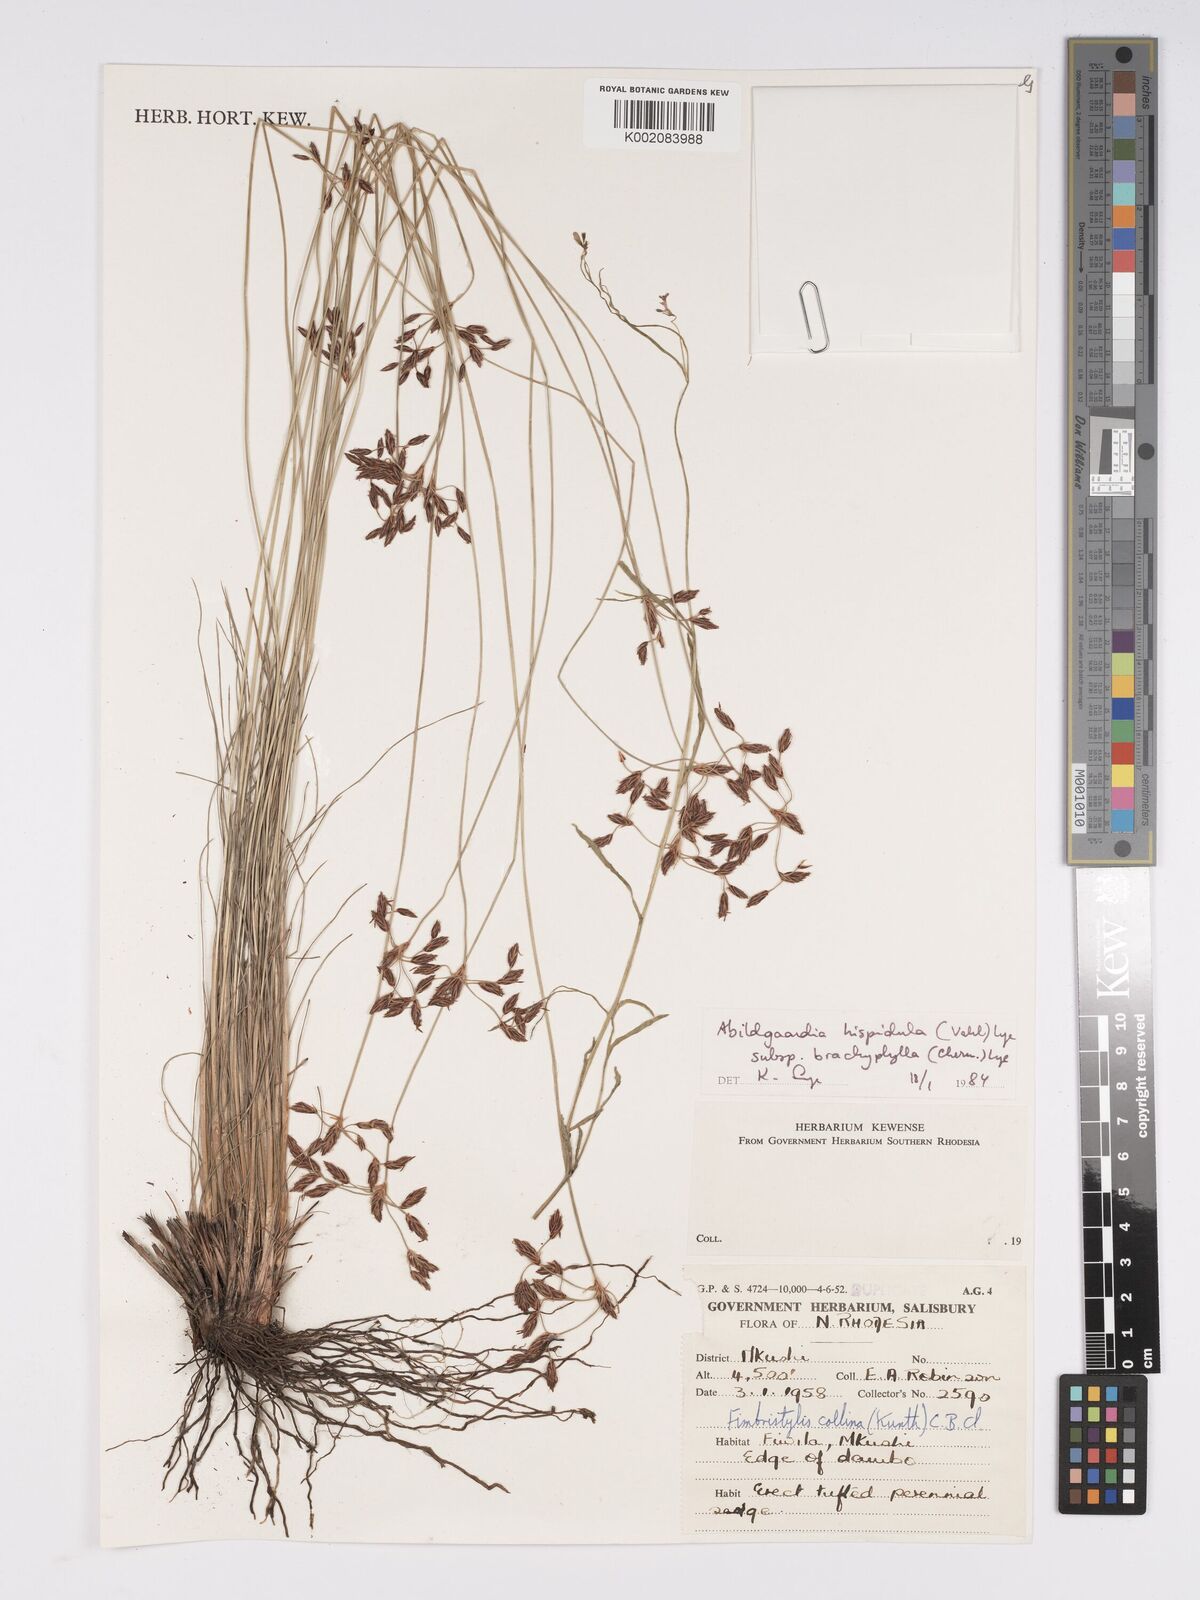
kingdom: Plantae
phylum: Tracheophyta
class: Liliopsida
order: Poales
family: Cyperaceae
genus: Bulbostylis
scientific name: Bulbostylis hispidula
